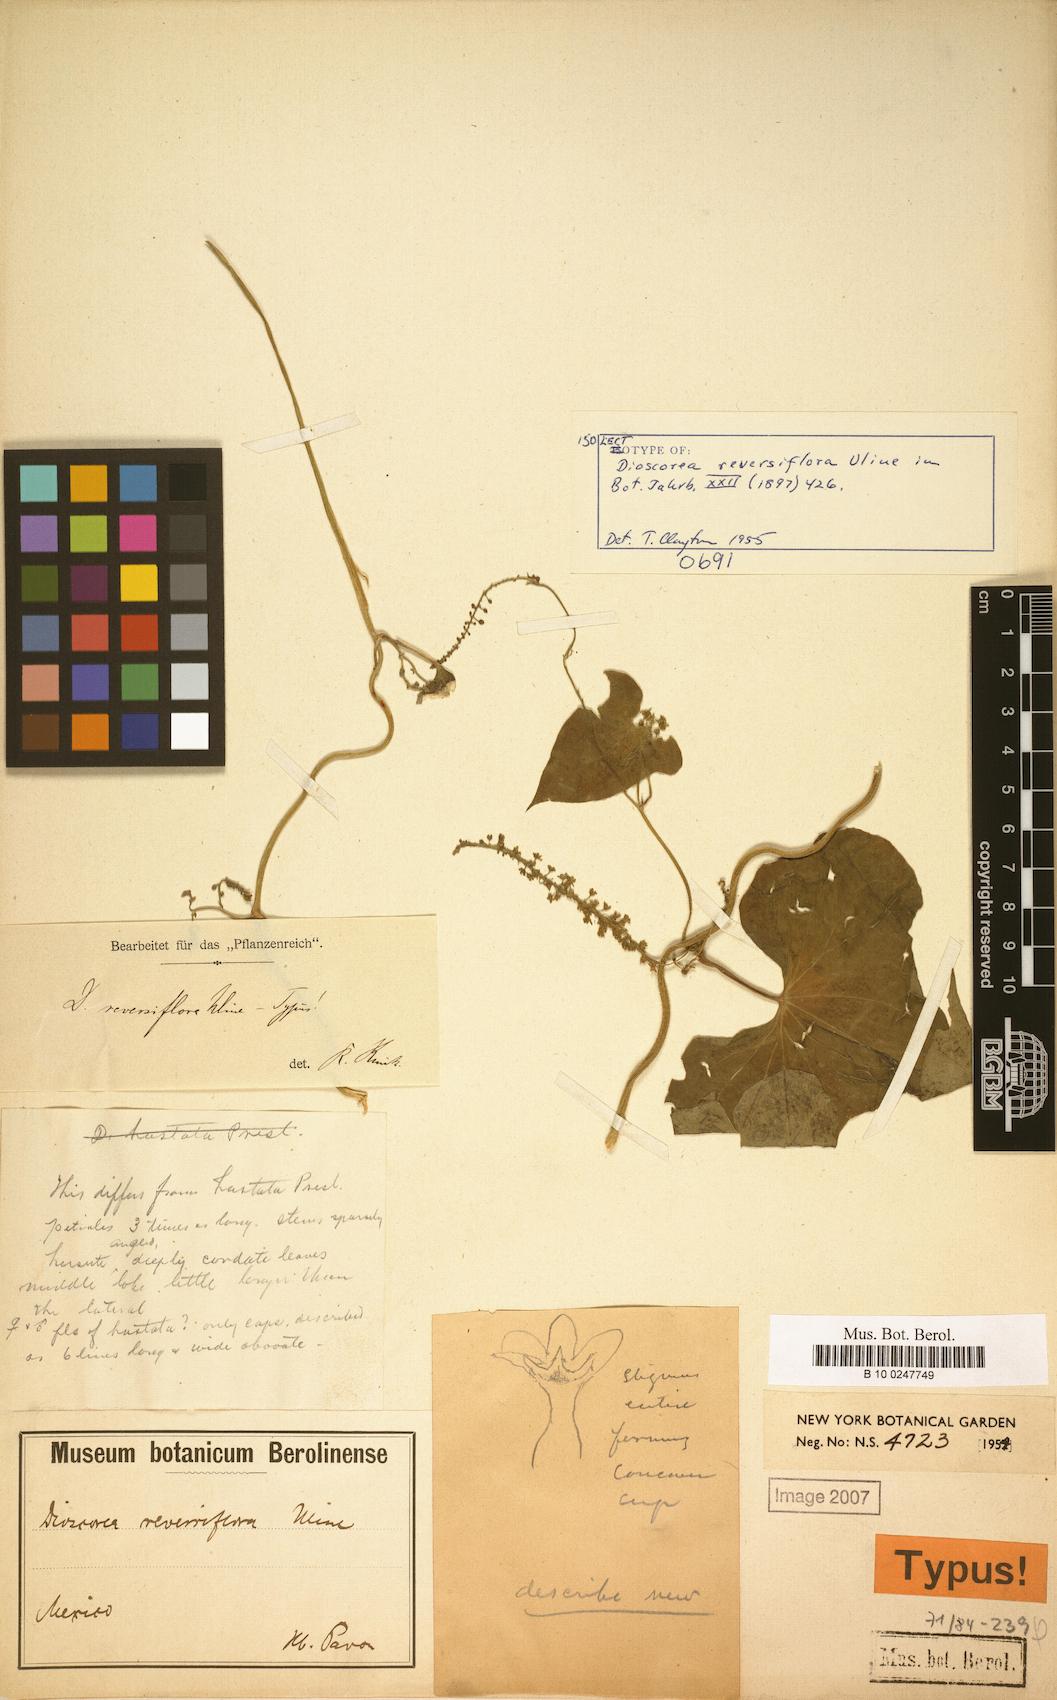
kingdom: Plantae
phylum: Tracheophyta
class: Liliopsida
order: Dioscoreales
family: Dioscoreaceae
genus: Dioscorea
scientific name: Dioscorea reversiflora
